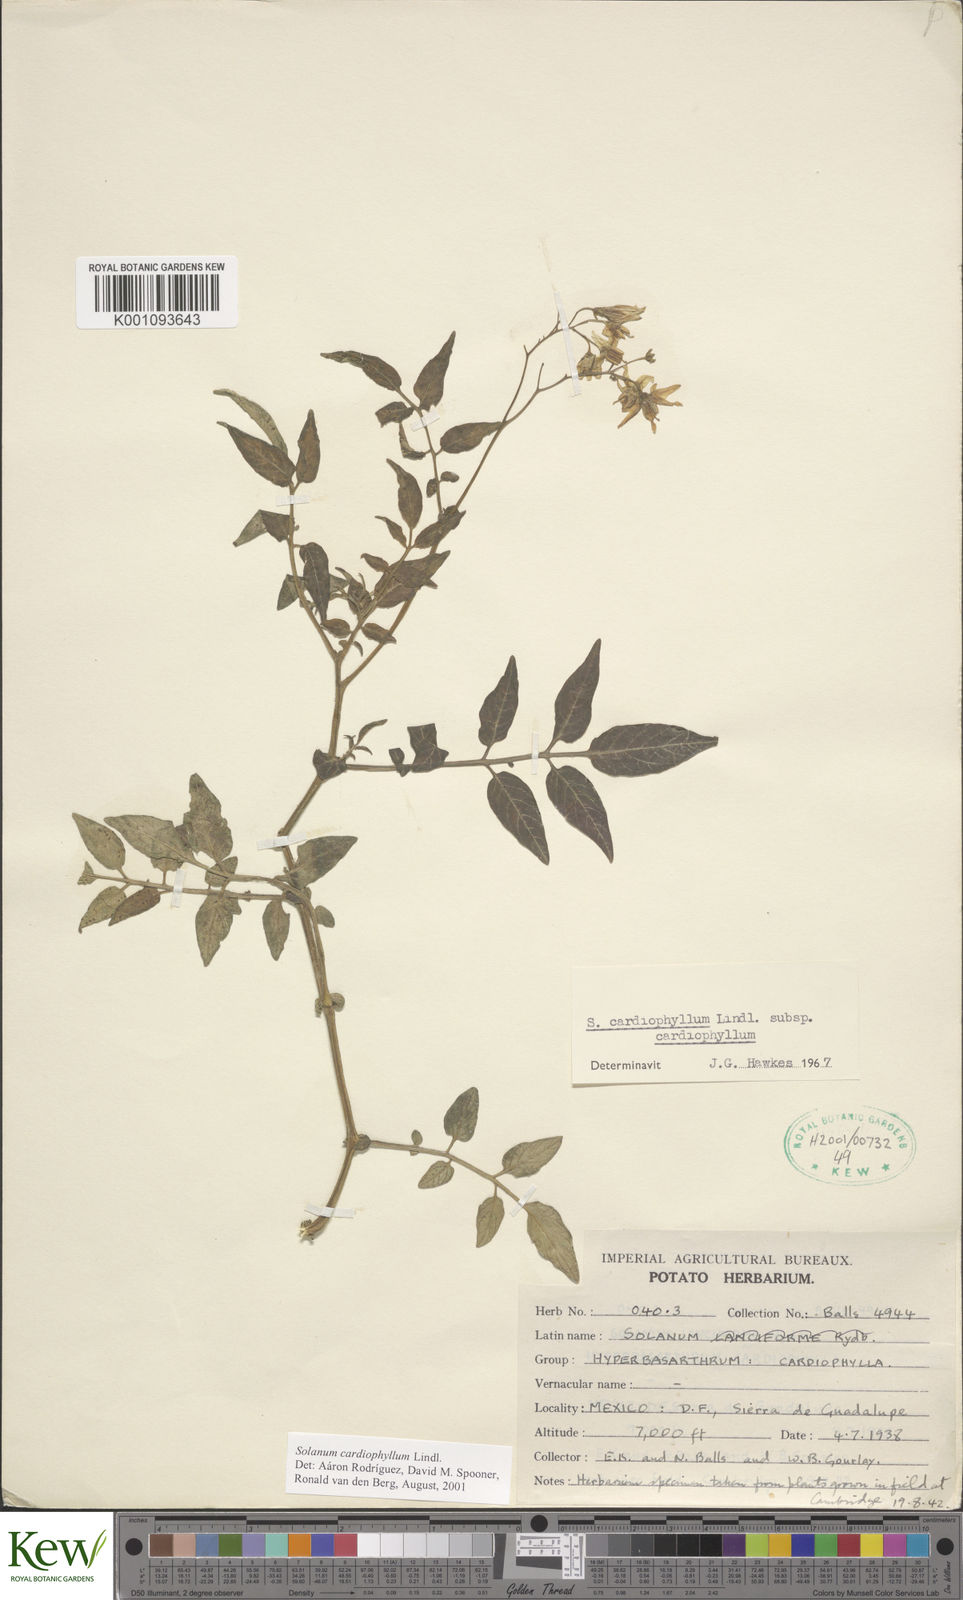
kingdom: Plantae
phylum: Tracheophyta
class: Magnoliopsida
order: Solanales
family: Solanaceae
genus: Solanum
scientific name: Solanum cardiophyllum
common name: Heartleaf horsenettle
